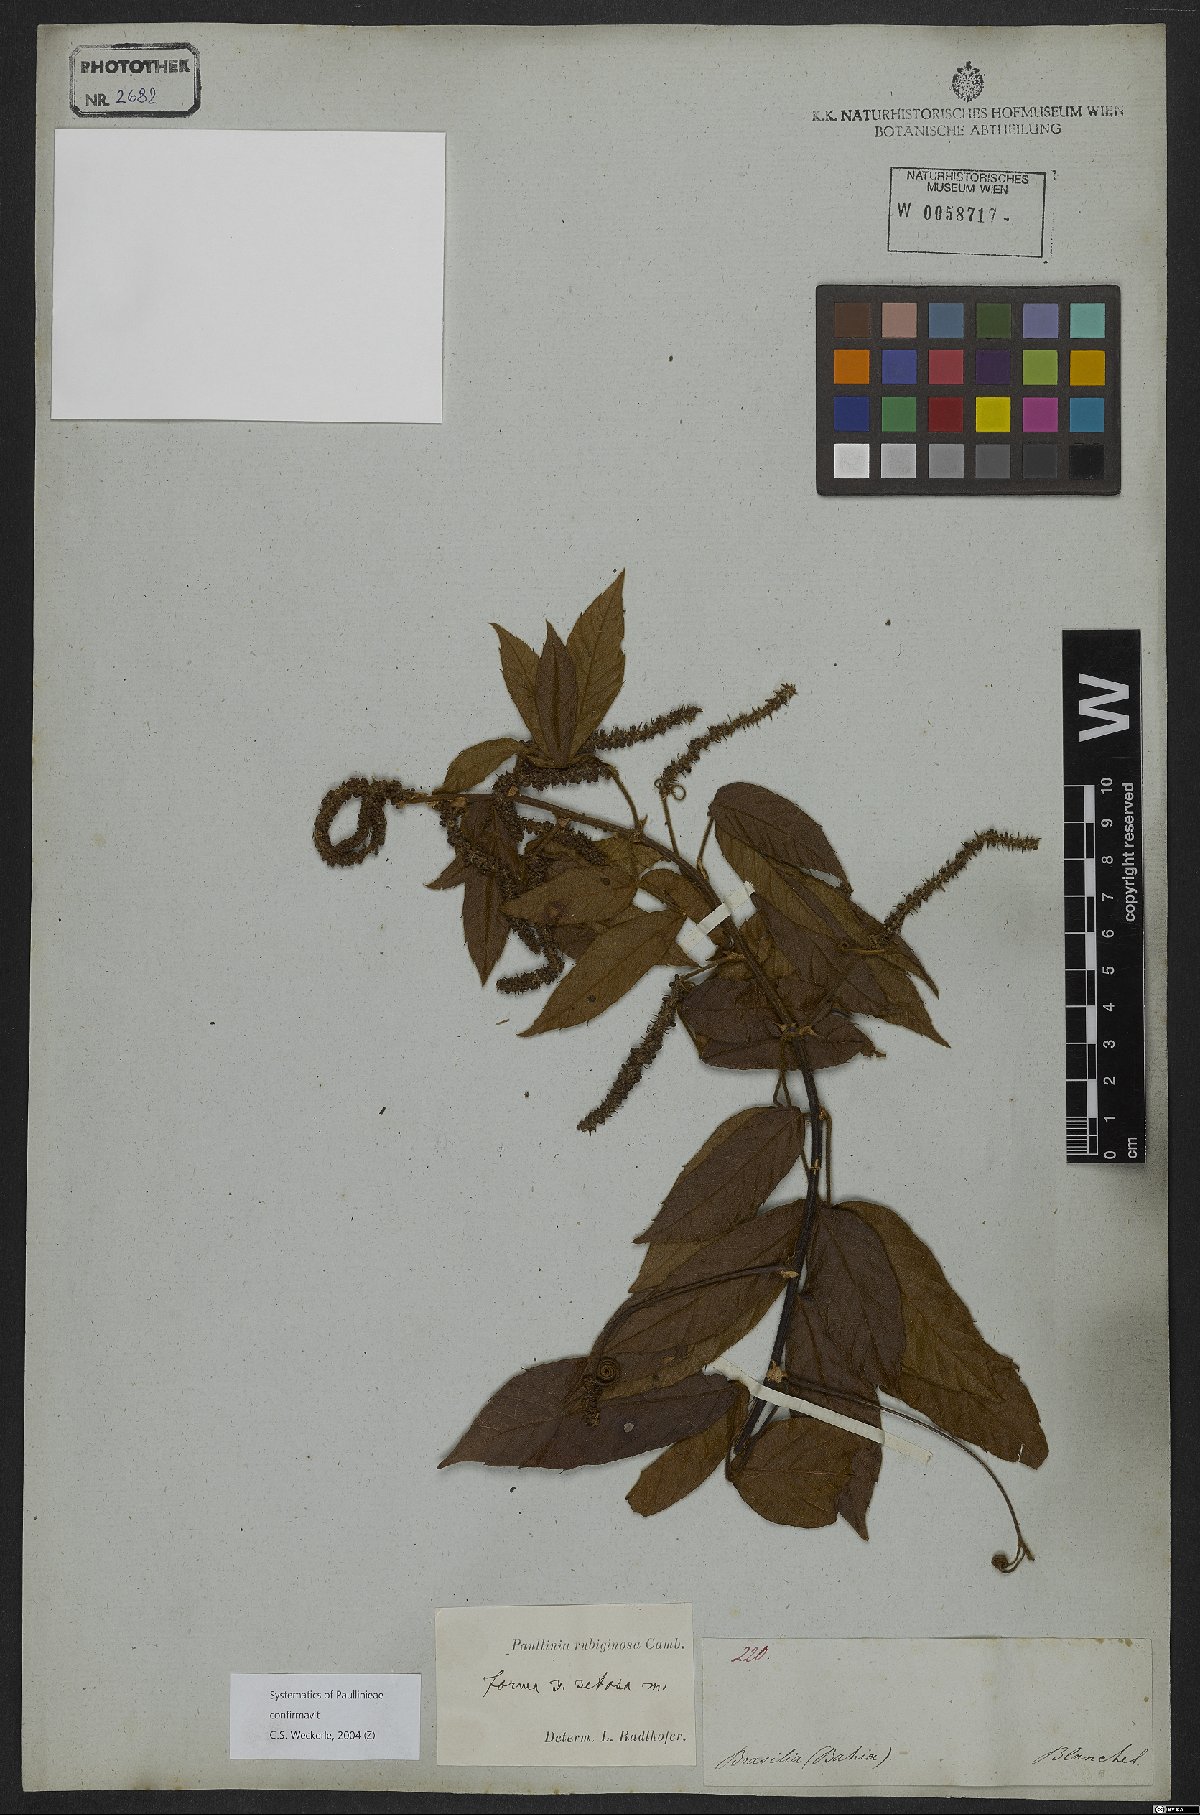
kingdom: Plantae
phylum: Tracheophyta
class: Magnoliopsida
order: Sapindales
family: Sapindaceae
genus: Paullinia
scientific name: Paullinia rubiginosa
